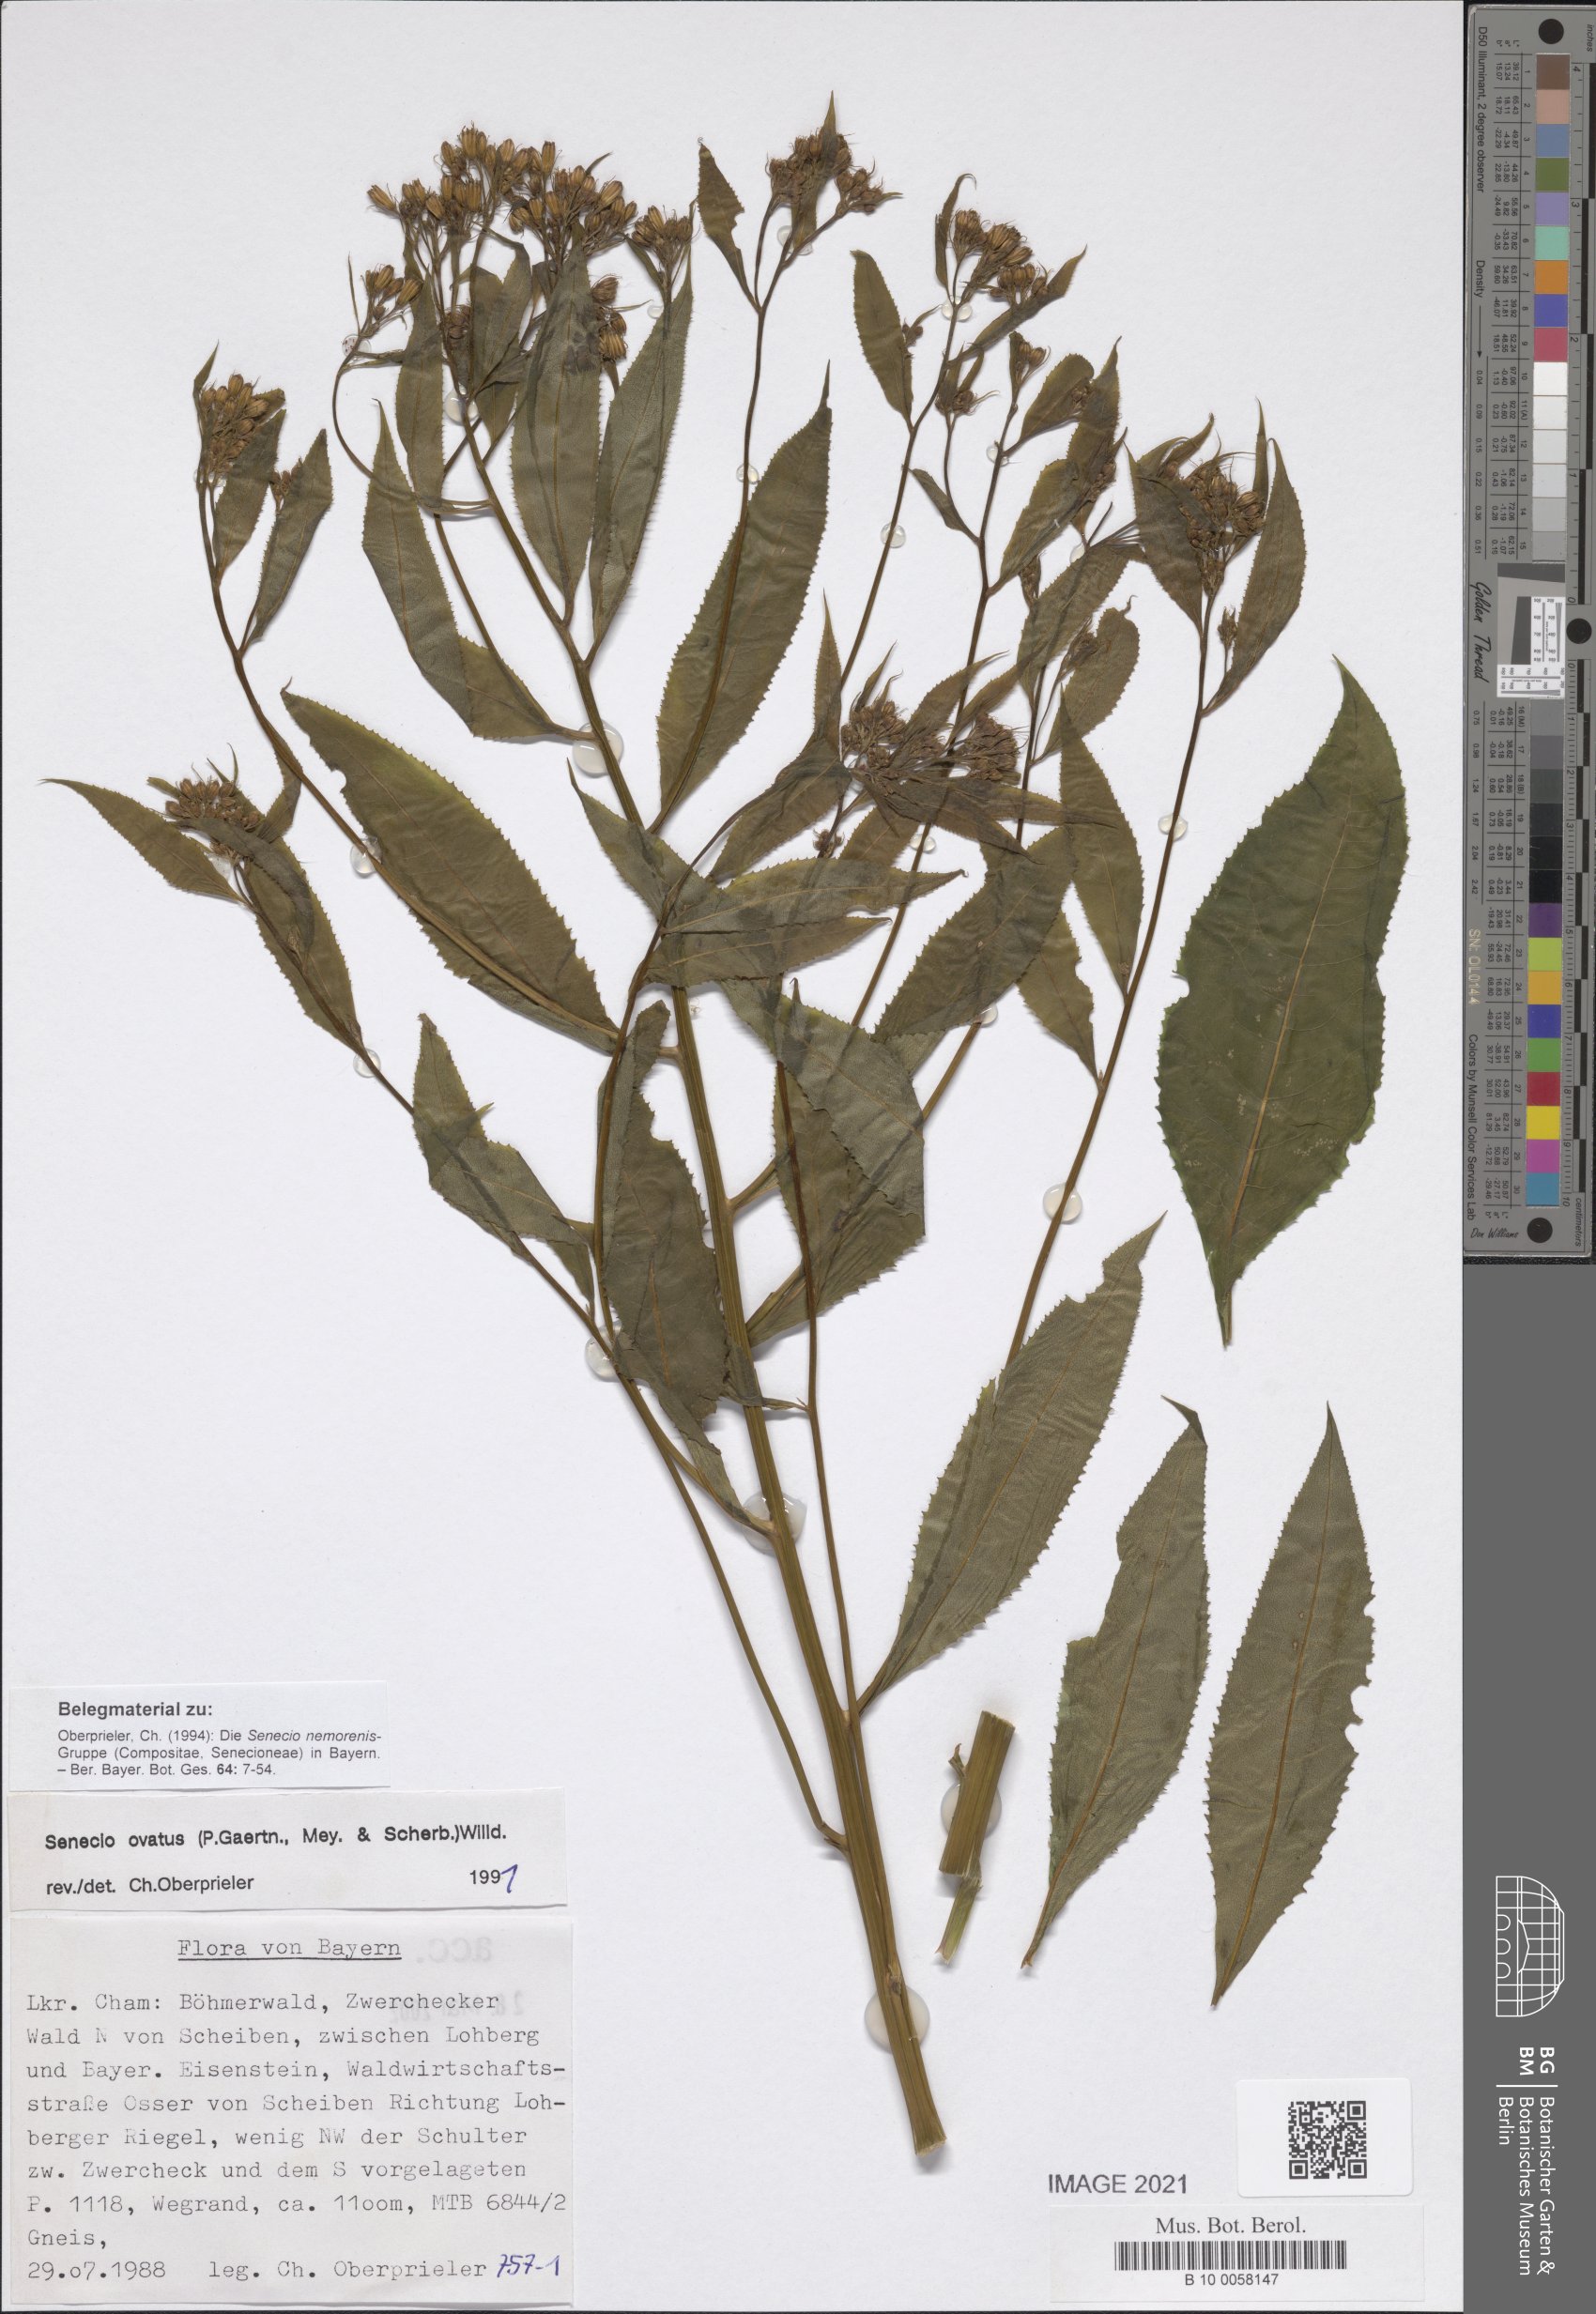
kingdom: Plantae
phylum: Tracheophyta
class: Magnoliopsida
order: Asterales
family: Asteraceae
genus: Senecio
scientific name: Senecio ovatus
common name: Wood ragwort
